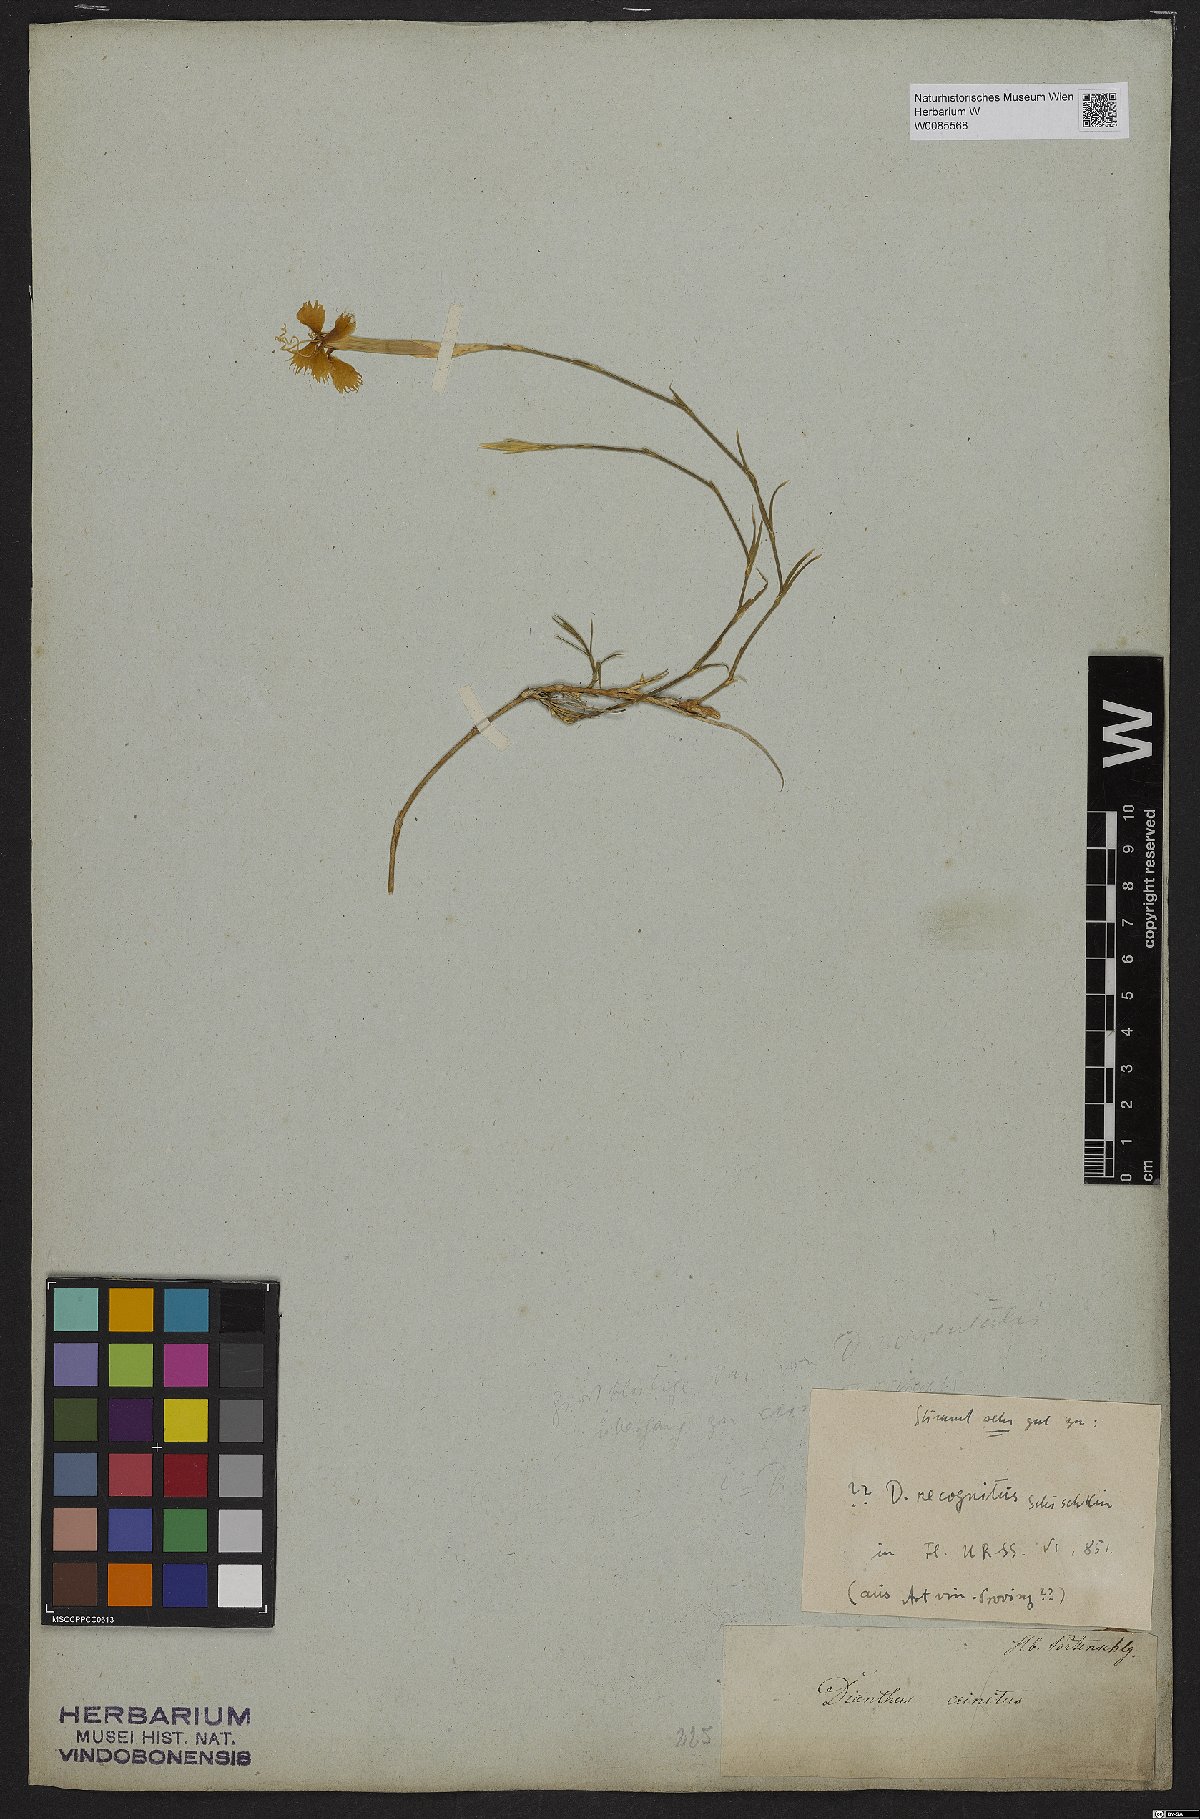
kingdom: Plantae
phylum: Tracheophyta
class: Magnoliopsida
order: Caryophyllales
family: Caryophyllaceae
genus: Dianthus
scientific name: Dianthus recognitus
